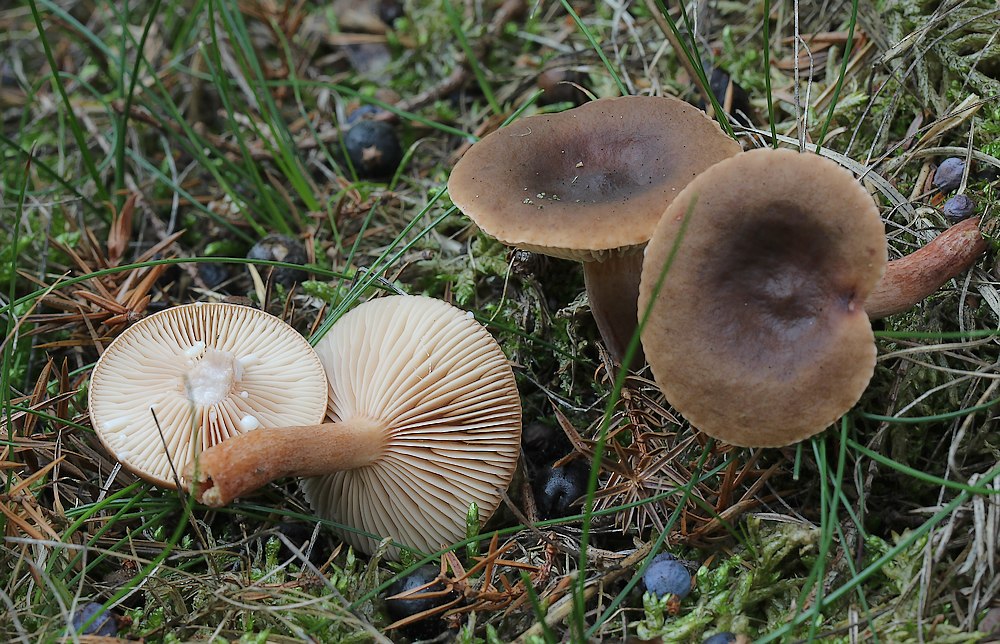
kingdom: Fungi
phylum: Basidiomycota
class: Agaricomycetes
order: Russulales
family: Russulaceae
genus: Lactarius
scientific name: Lactarius hepaticus
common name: leverbrun mælkehat
